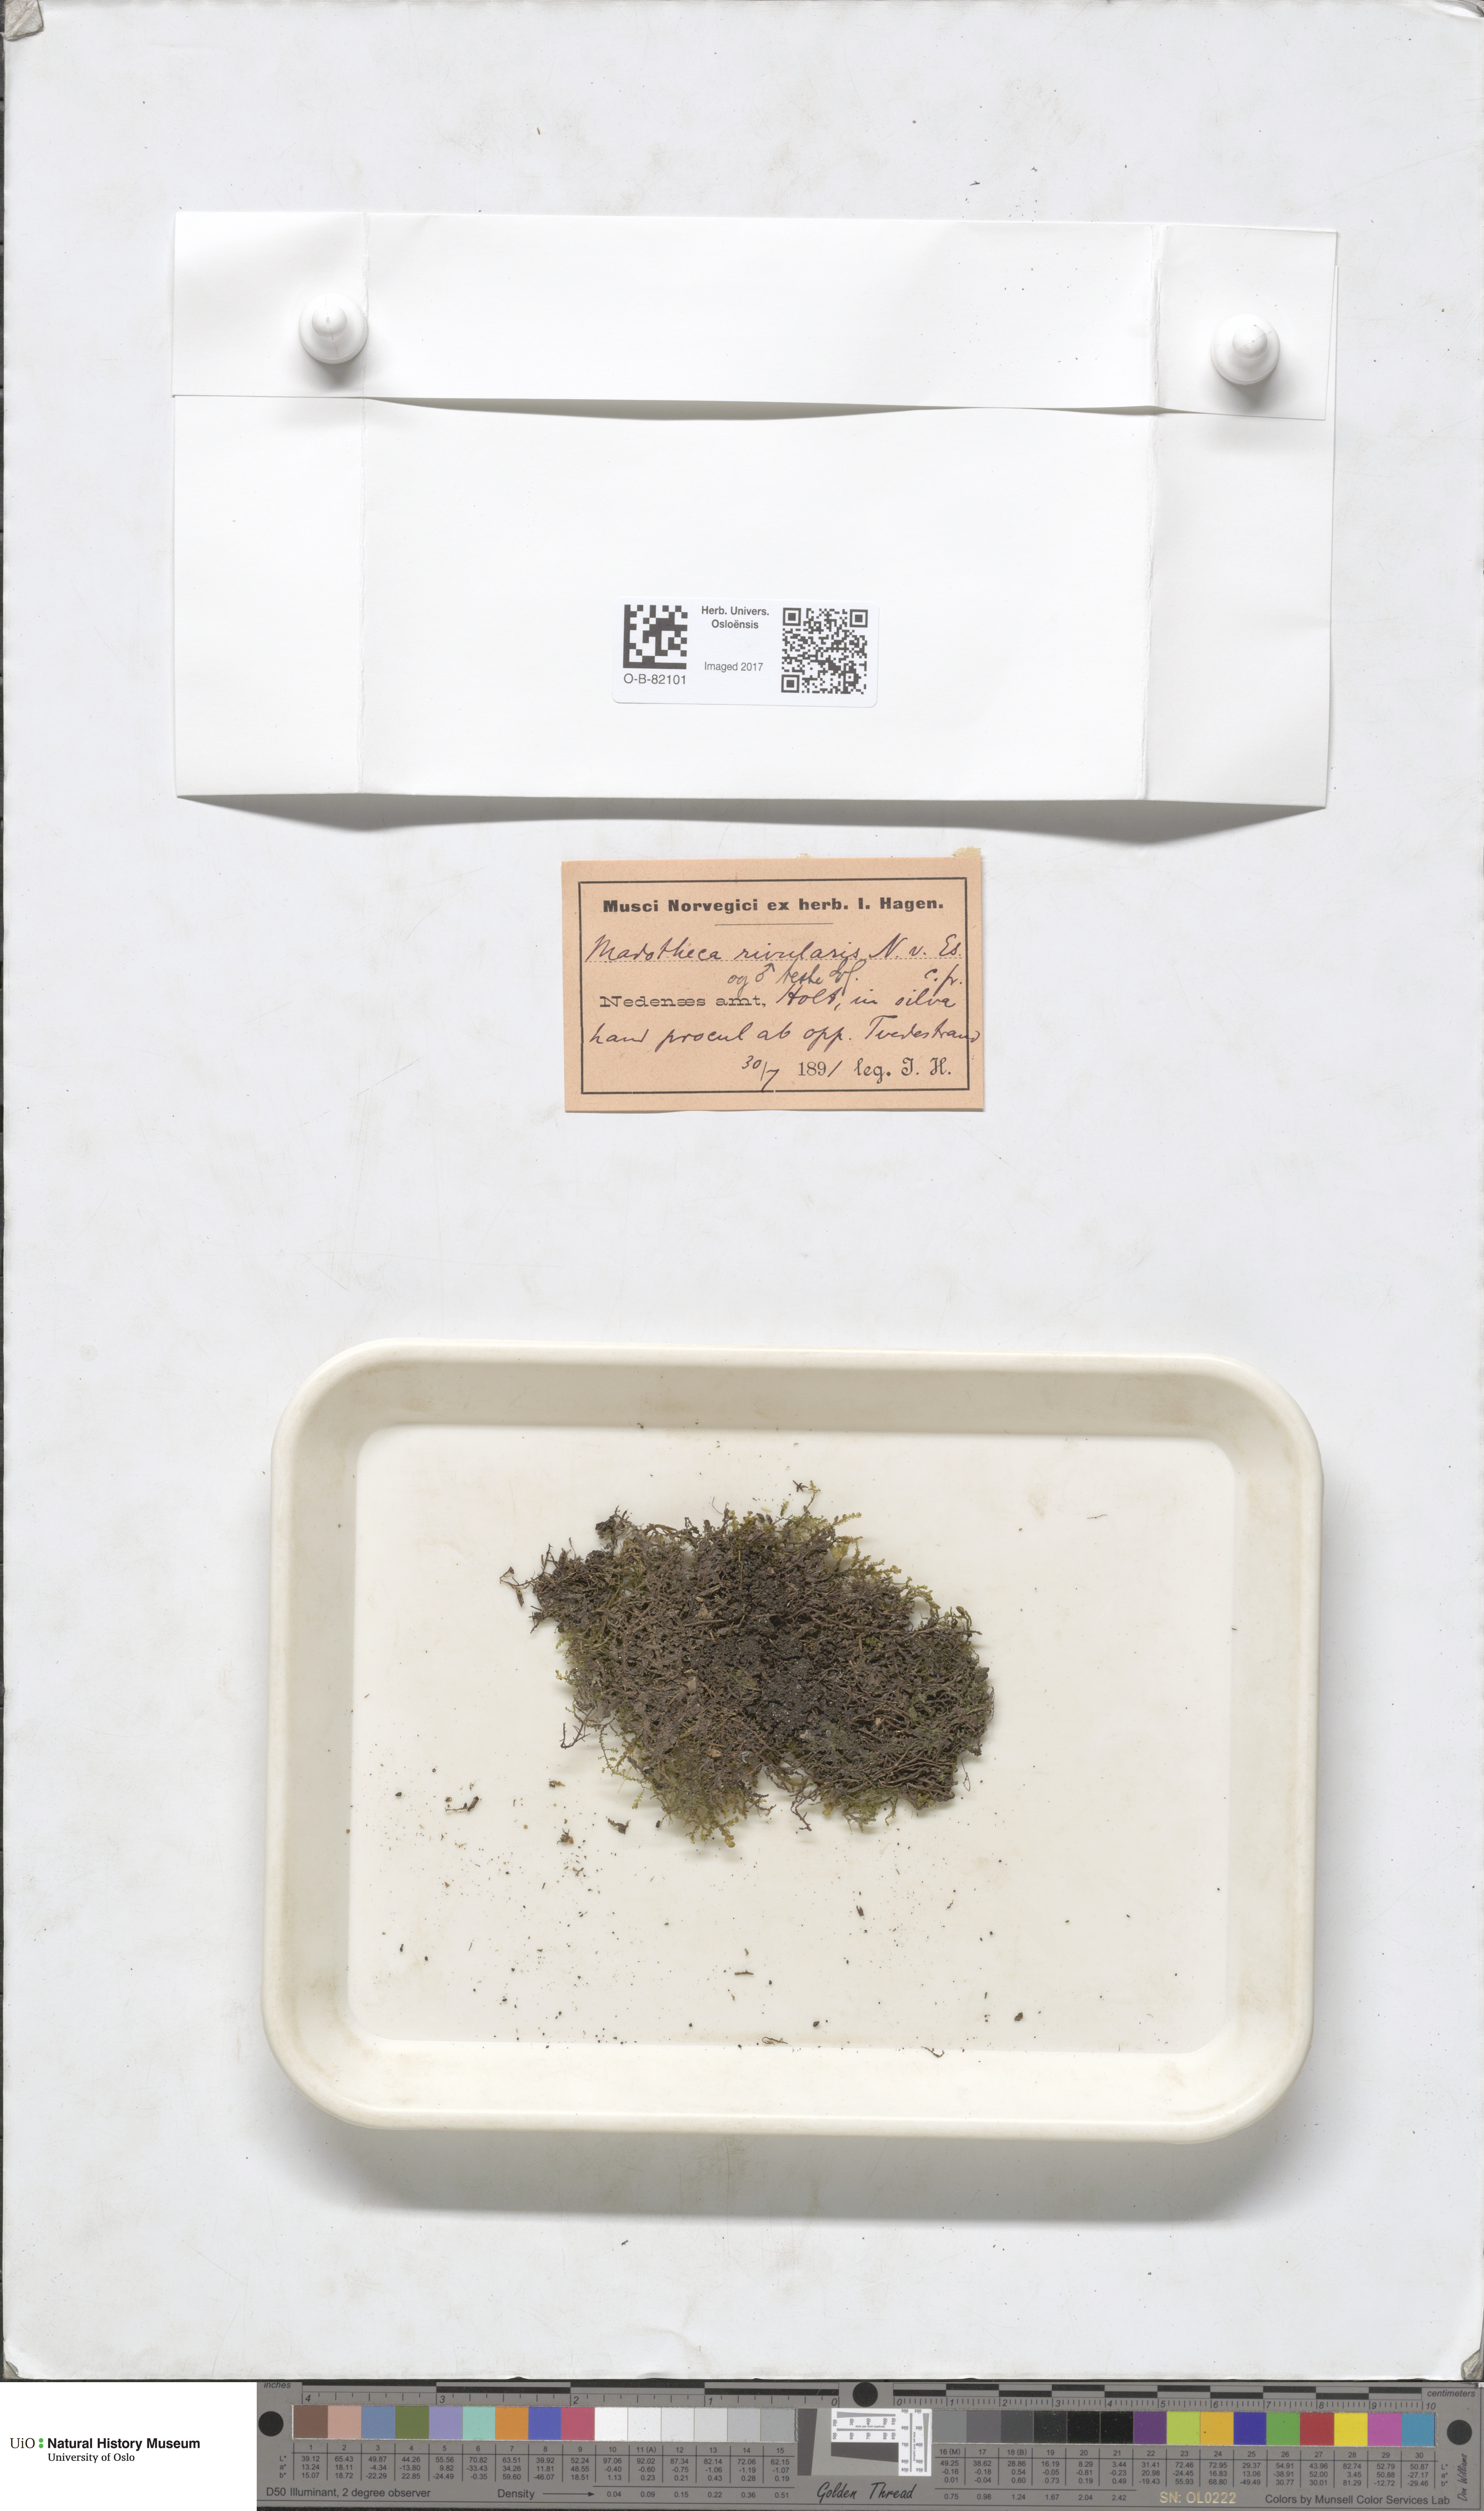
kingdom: Plantae
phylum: Marchantiophyta
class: Jungermanniopsida
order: Porellales
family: Porellaceae
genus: Porella
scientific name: Porella cordaeana
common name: Cliff scalewort
